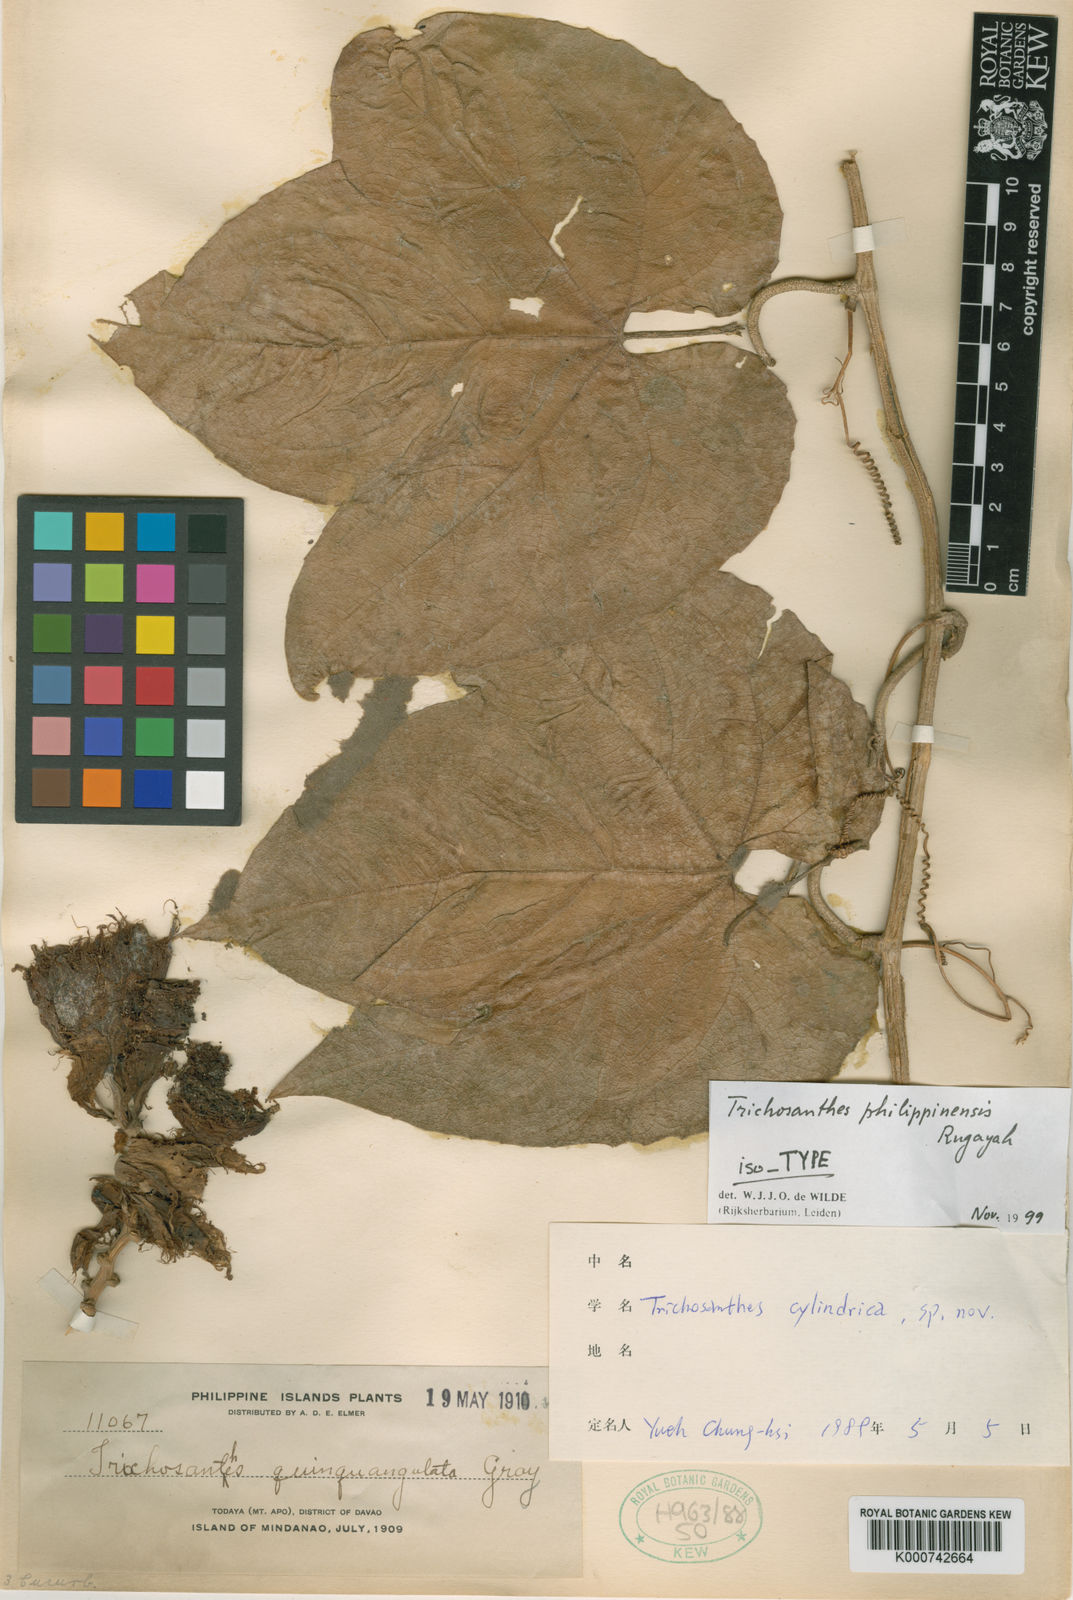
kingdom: Plantae
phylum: Tracheophyta
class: Magnoliopsida
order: Cucurbitales
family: Cucurbitaceae
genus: Trichosanthes
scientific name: Trichosanthes philippinensis
